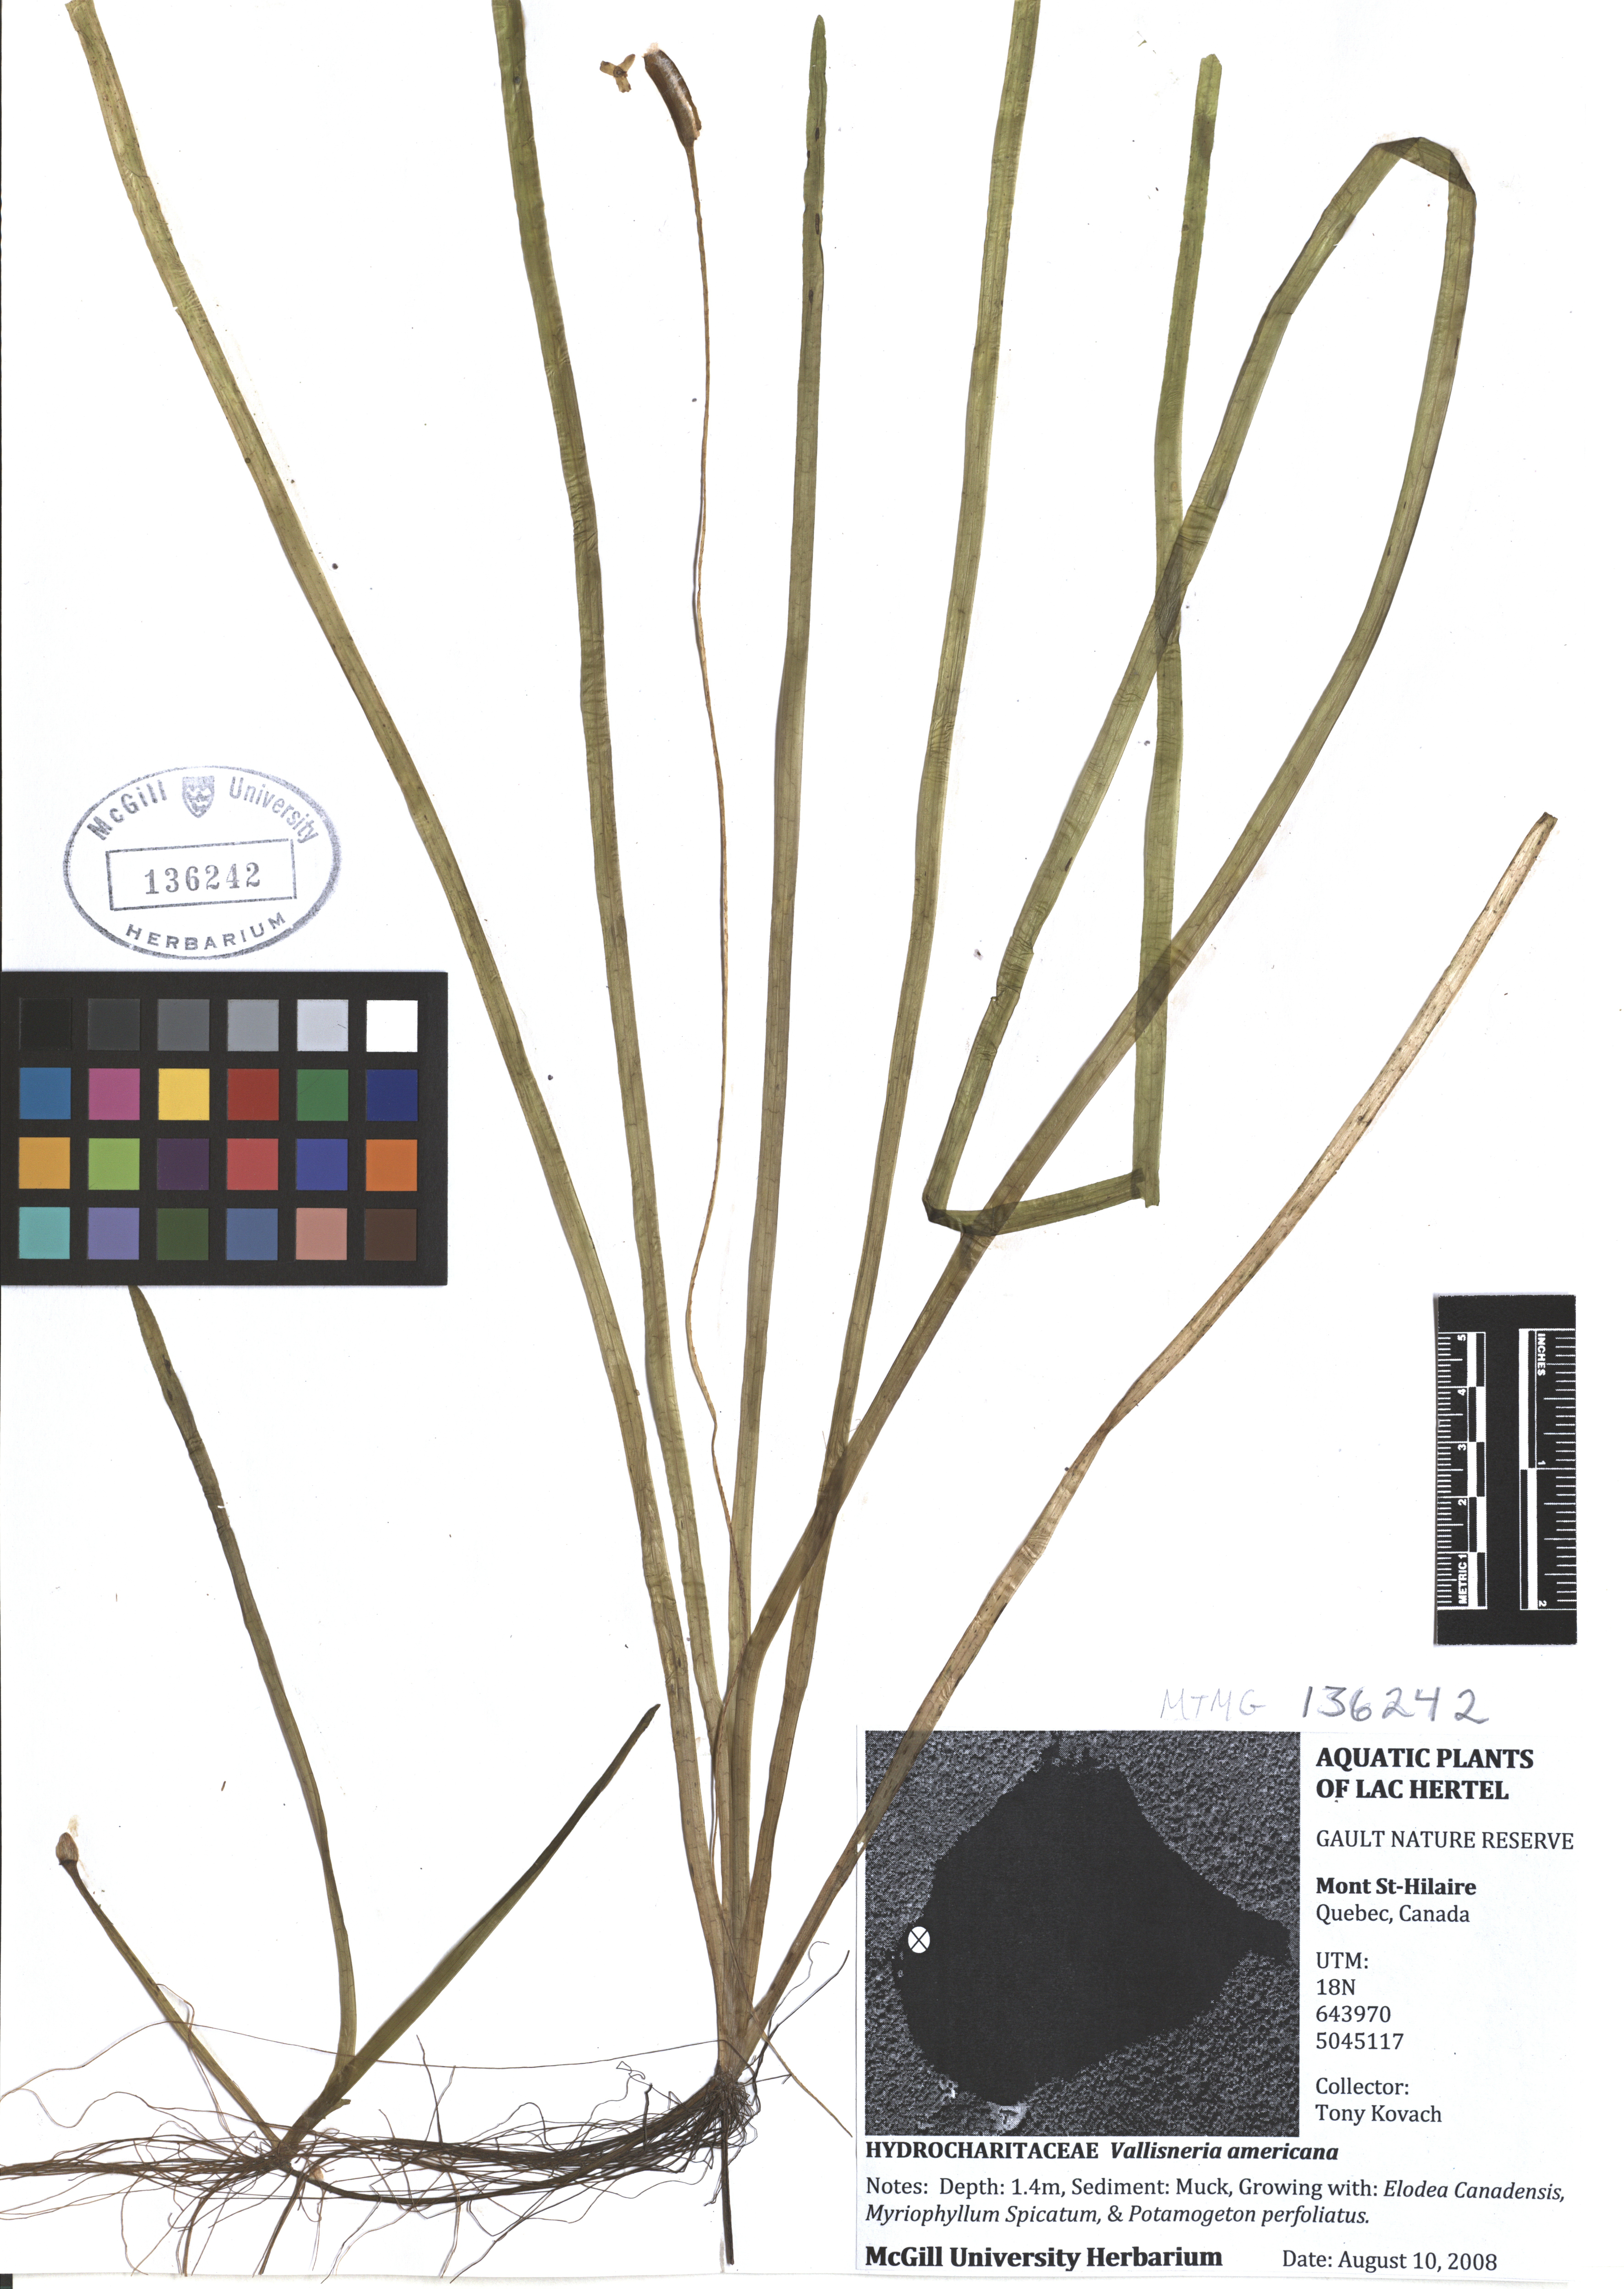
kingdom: Plantae
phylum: Tracheophyta
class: Liliopsida
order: Alismatales
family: Hydrocharitaceae
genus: Vallisneria
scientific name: Vallisneria americana
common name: American eelgrass
